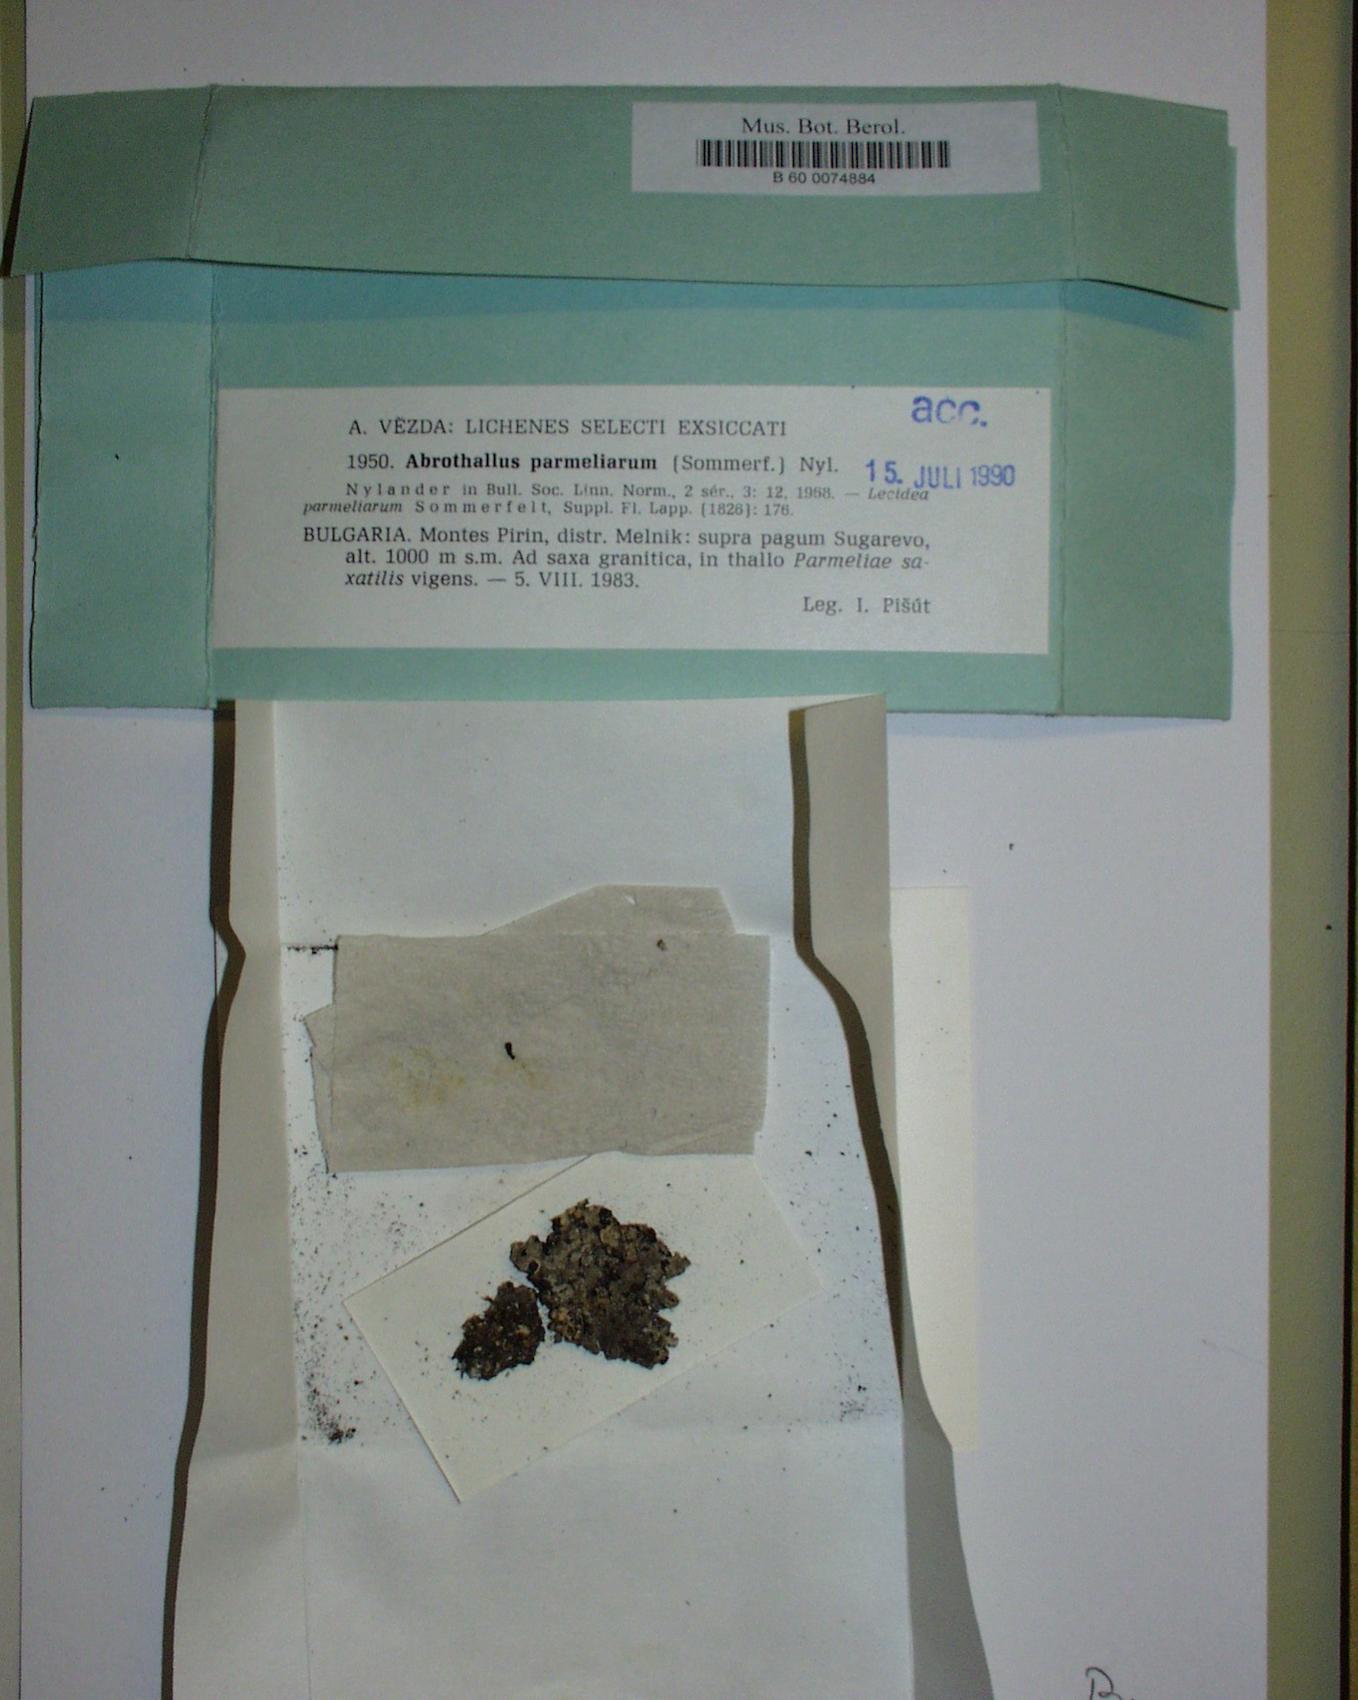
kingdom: Fungi
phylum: Ascomycota
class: Dothideomycetes
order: Abrothallales
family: Abrothallaceae
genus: Abrothallus
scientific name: Abrothallus parmeliarum
